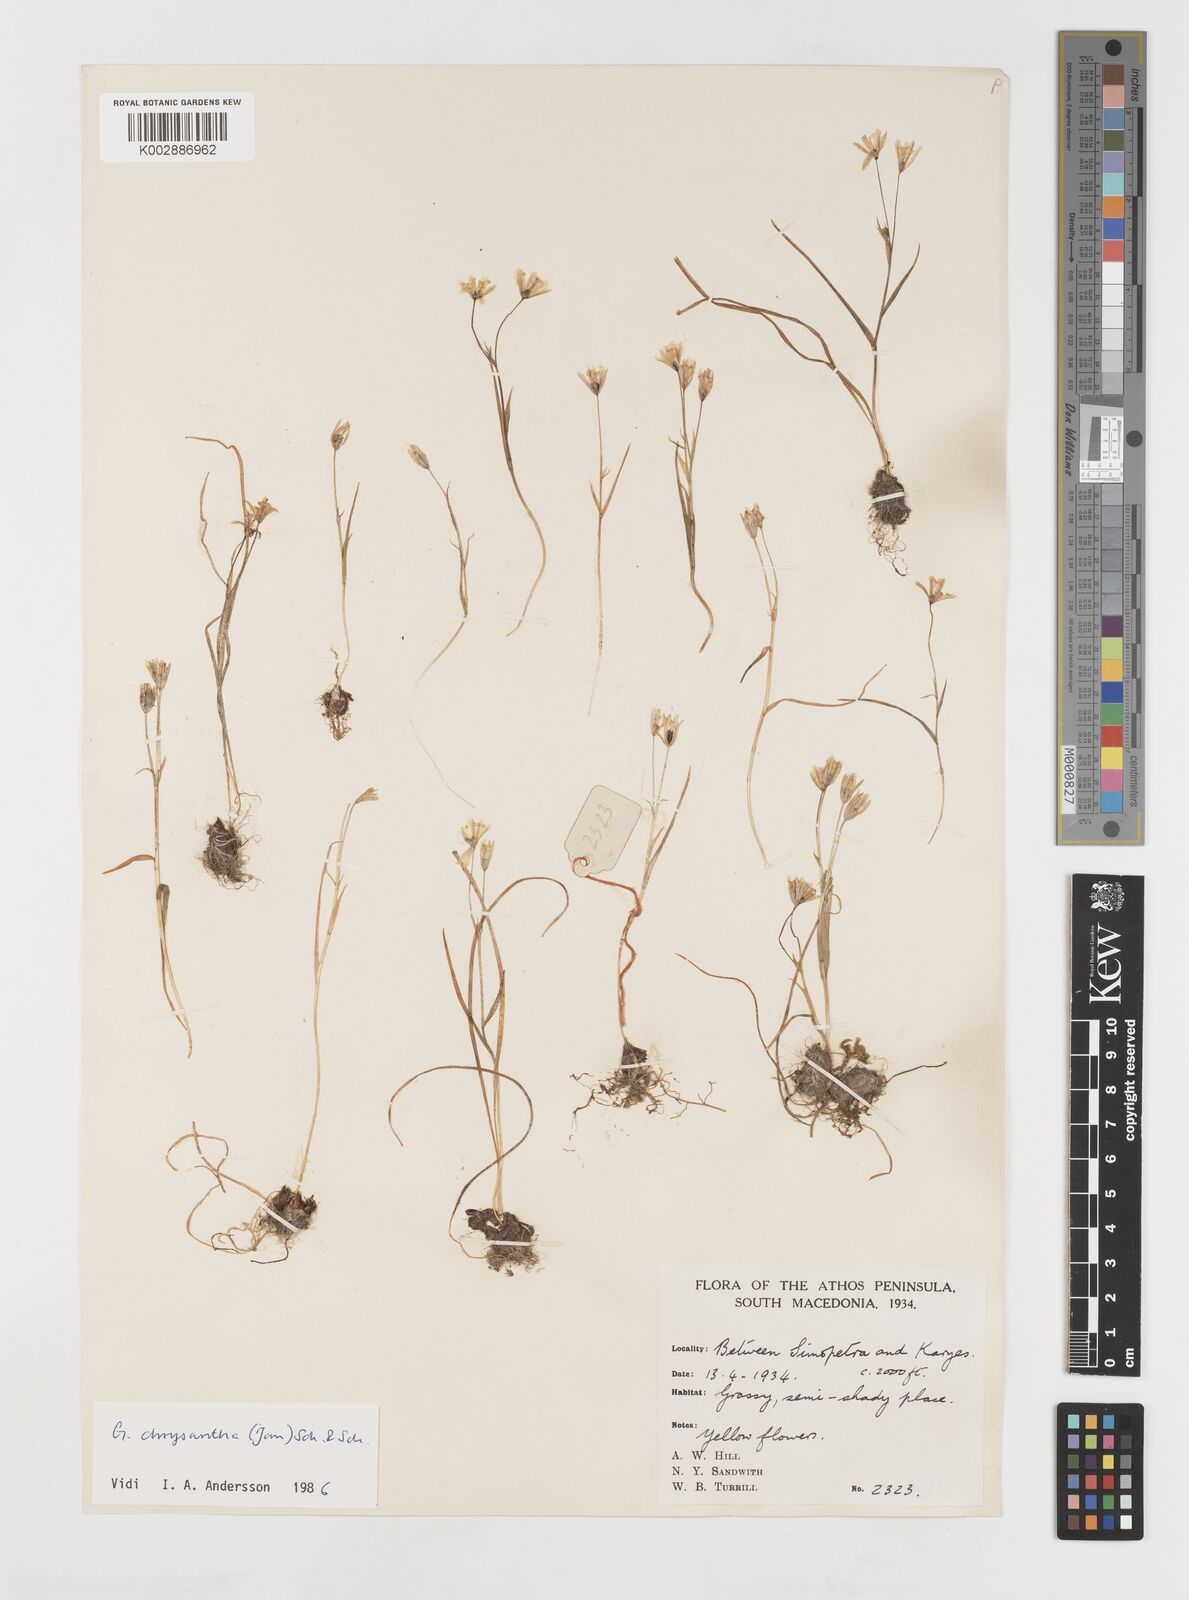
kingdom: Plantae
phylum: Tracheophyta
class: Liliopsida
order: Liliales
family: Liliaceae
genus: Gagea
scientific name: Gagea amblyopetala
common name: Blunt-flowered gagea
